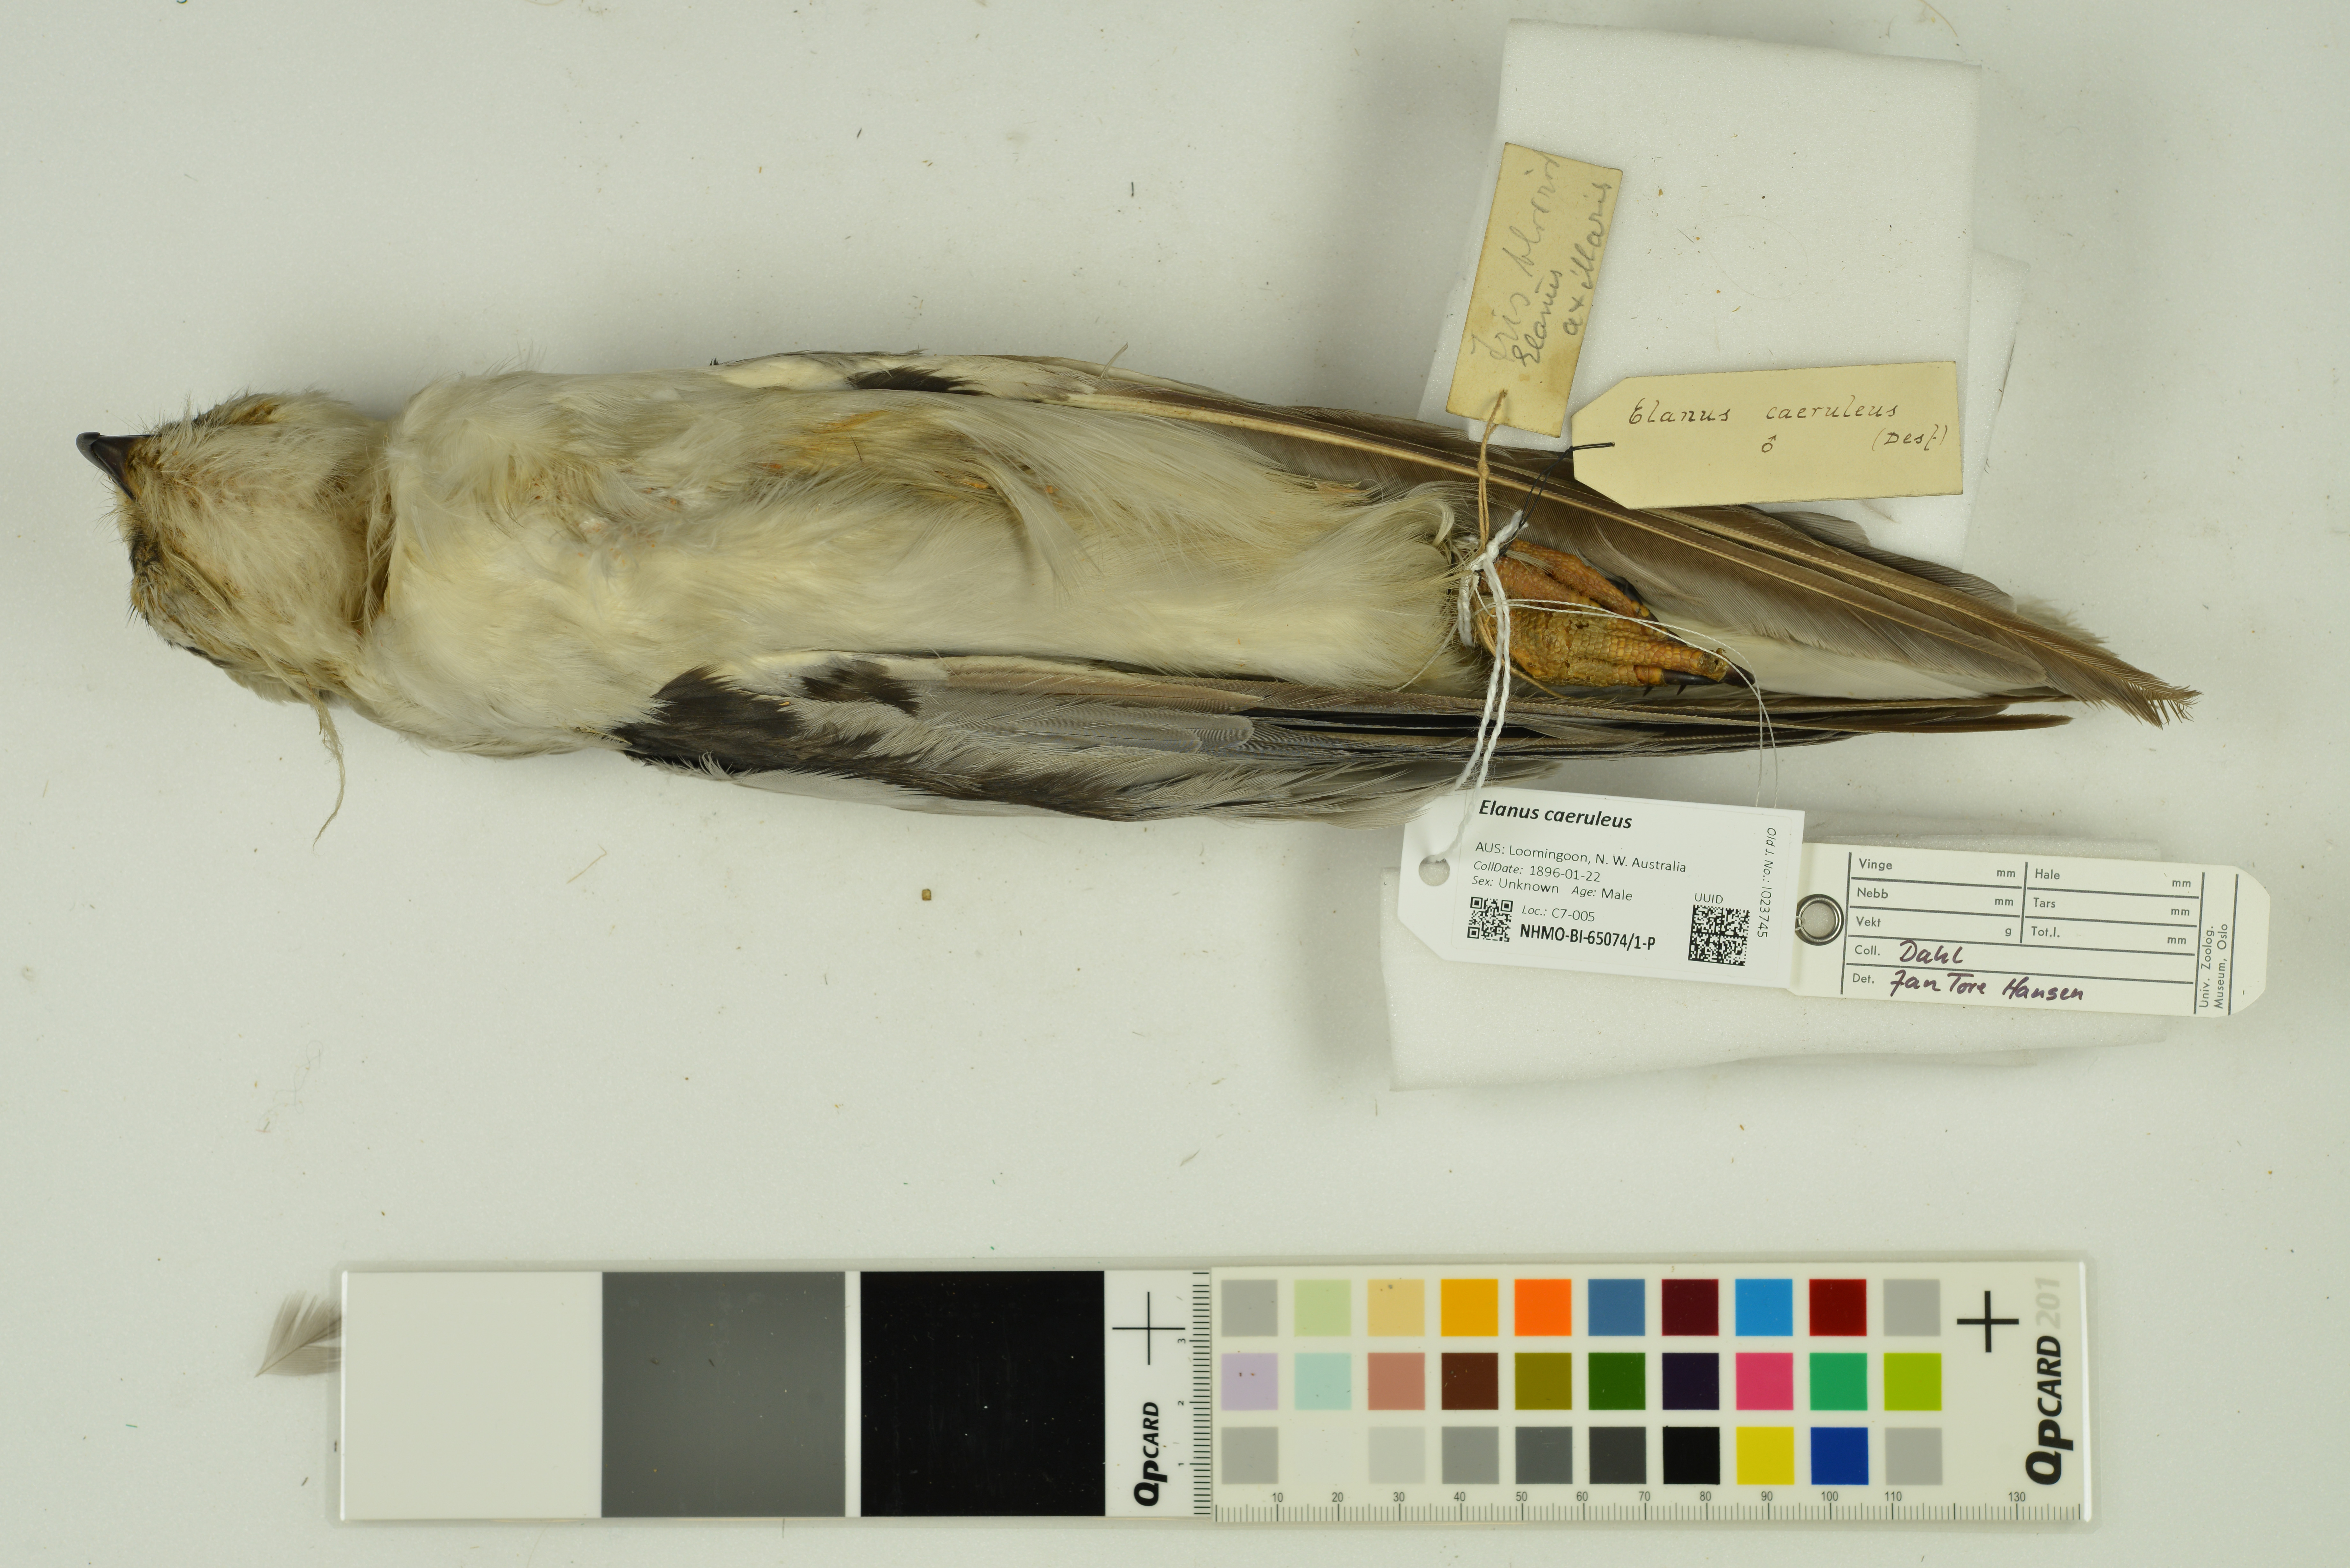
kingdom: Animalia
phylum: Chordata
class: Aves
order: Accipitriformes
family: Accipitridae
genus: Elanus
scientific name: Elanus caeruleus
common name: Black-winged kite
